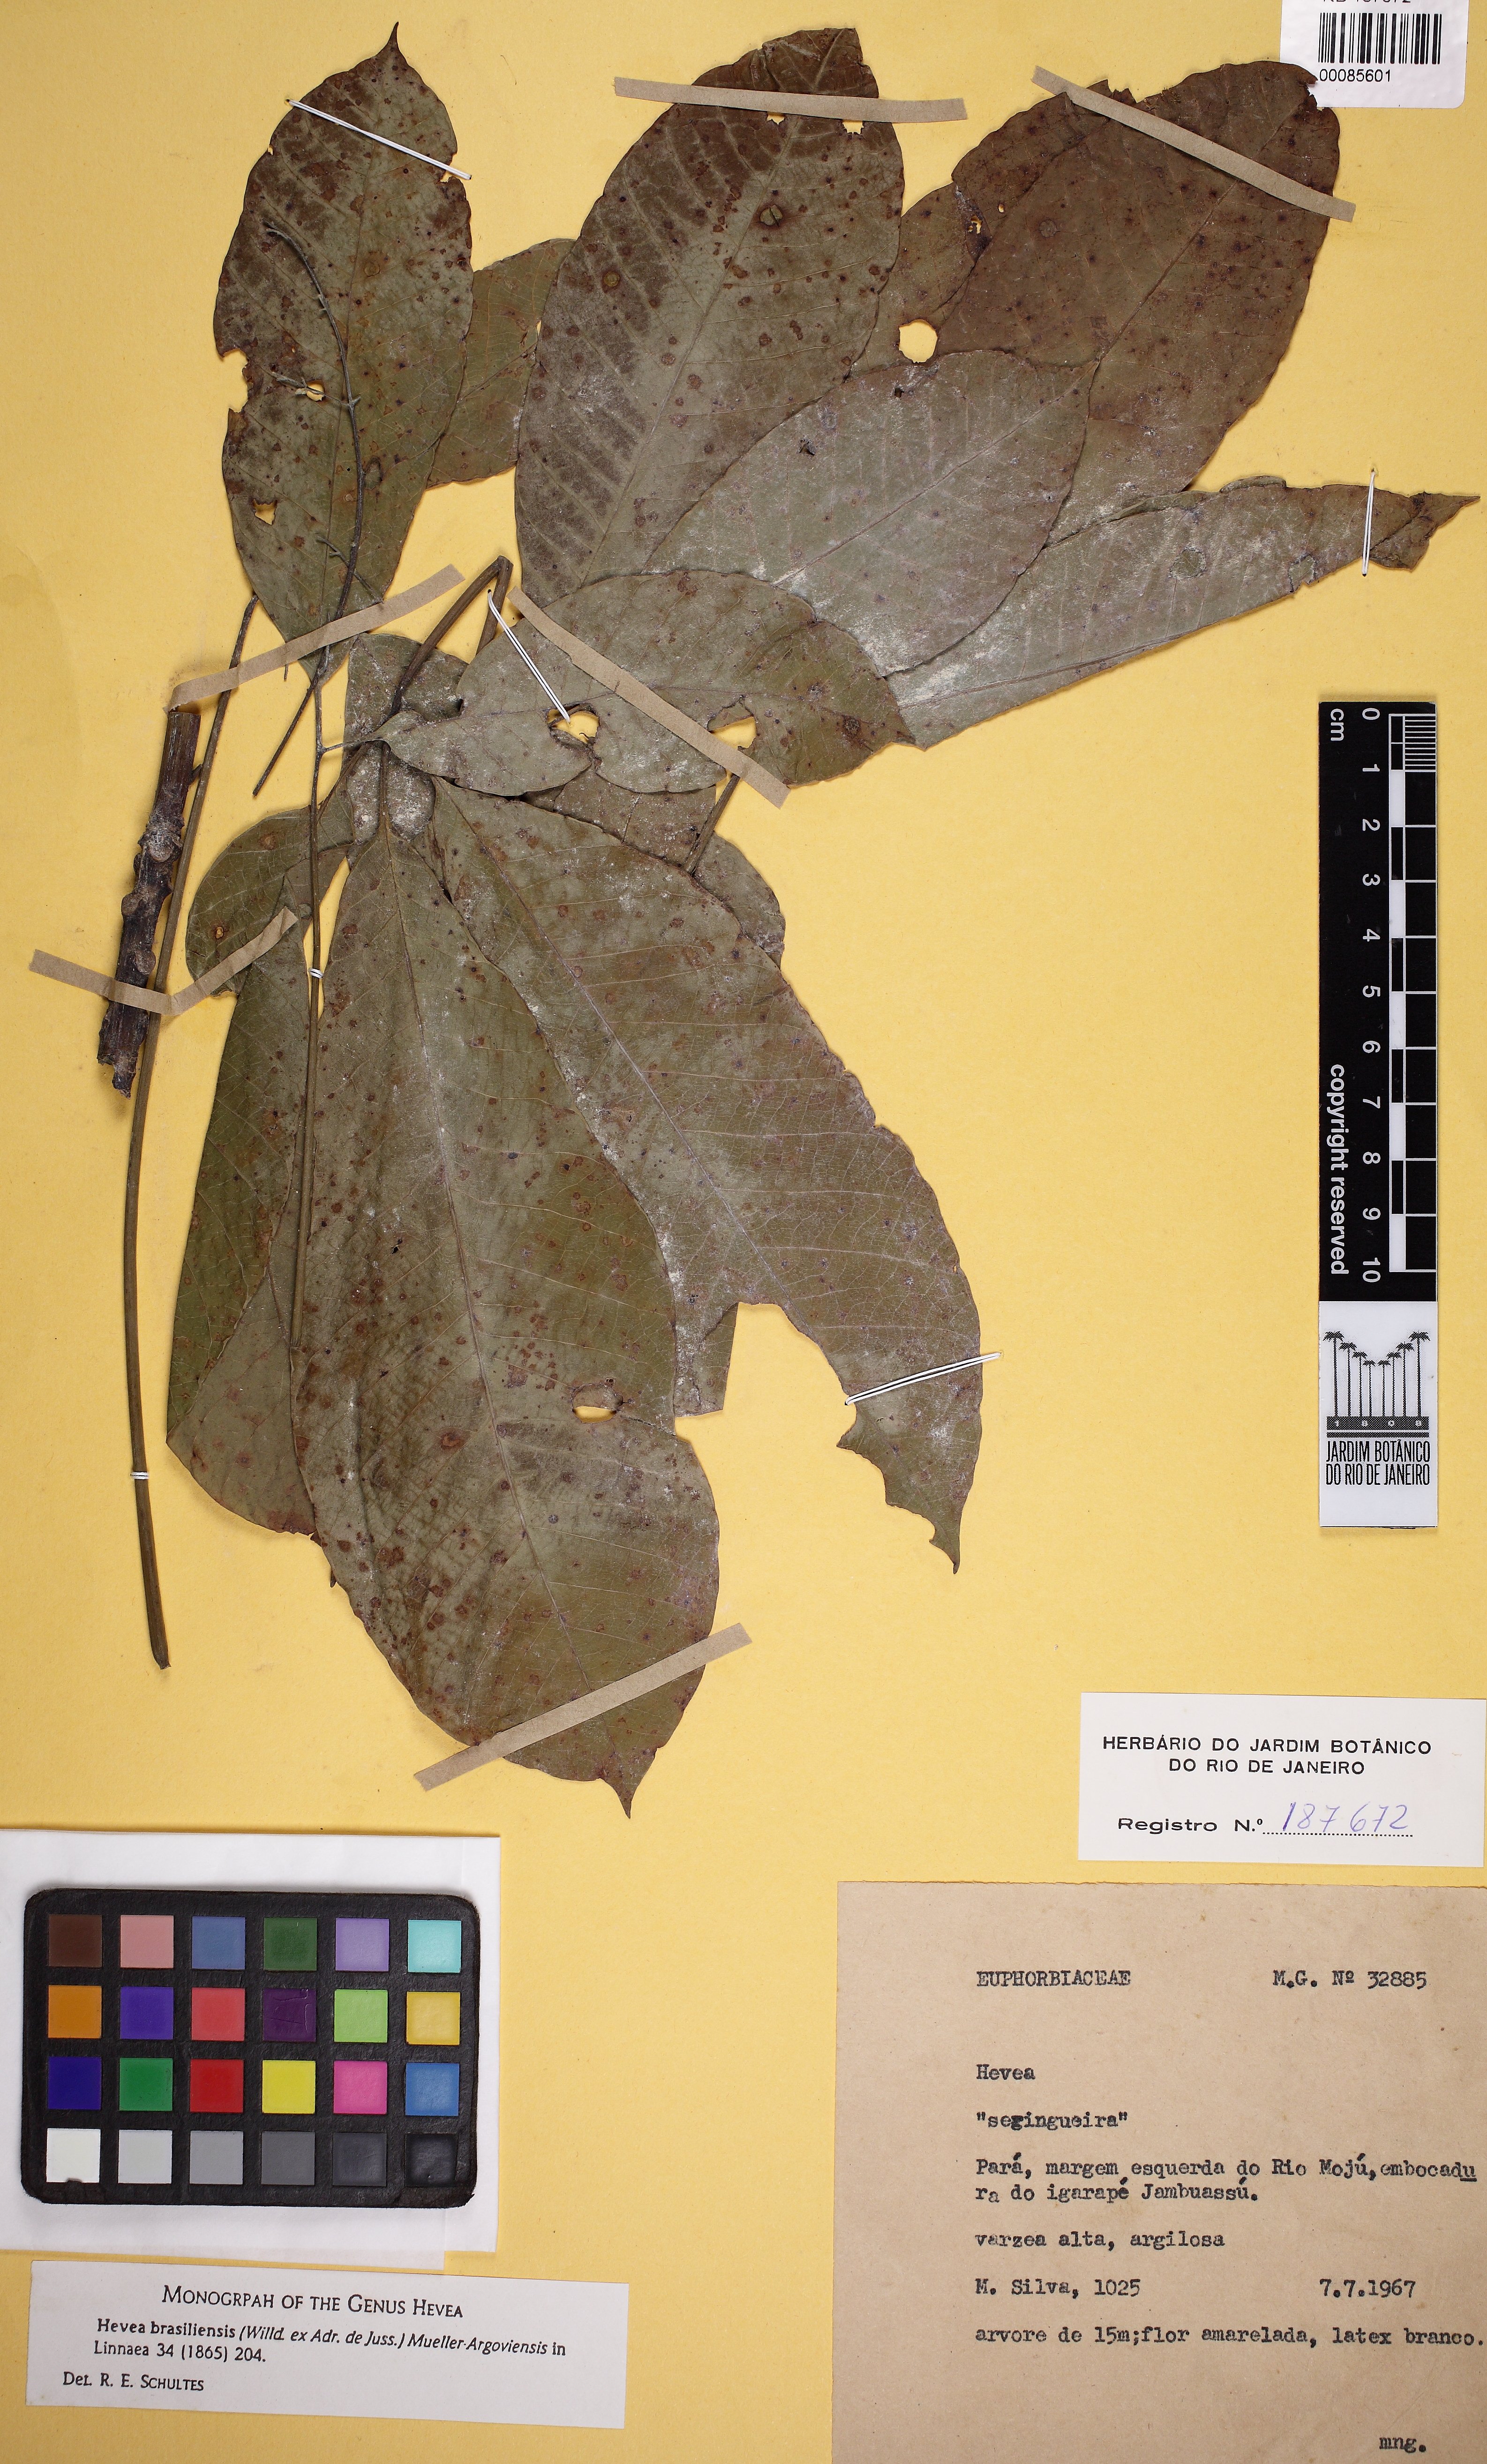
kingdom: Plantae
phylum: Tracheophyta
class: Magnoliopsida
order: Malpighiales
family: Euphorbiaceae
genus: Hevea
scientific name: Hevea brasiliensis
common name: Natural rubber
